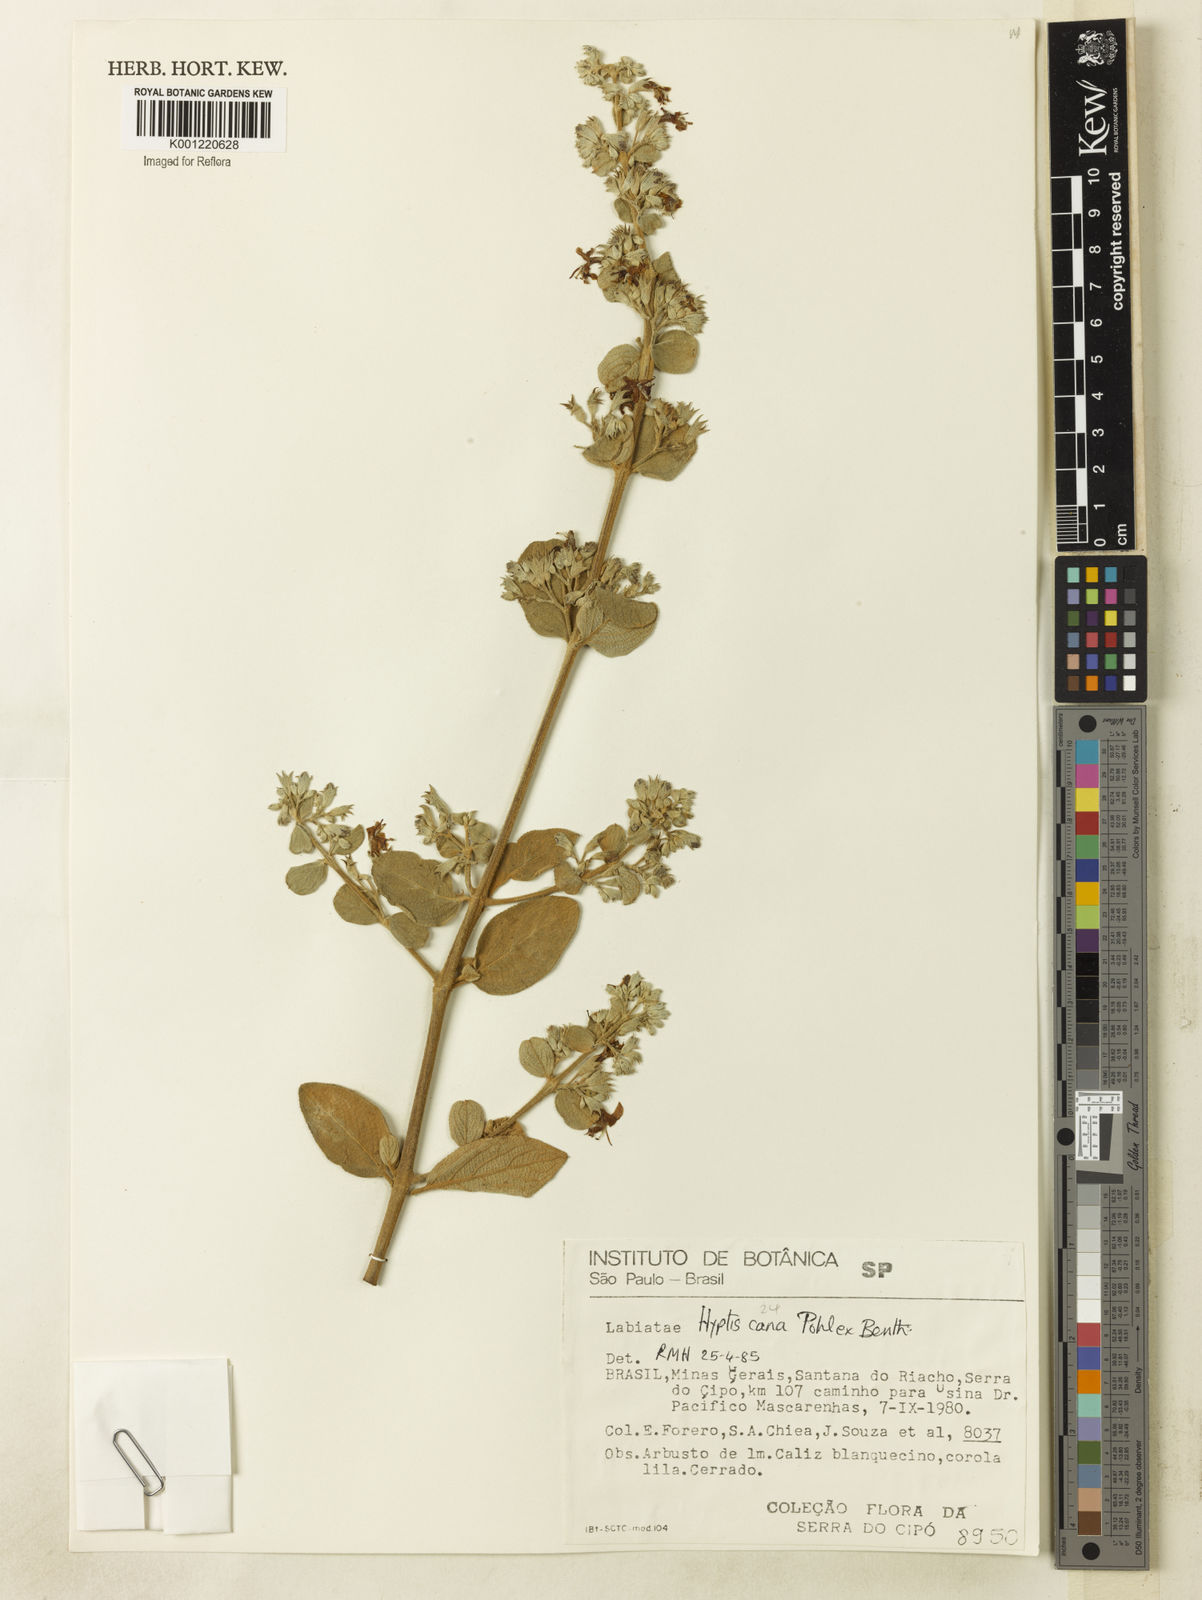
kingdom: Plantae
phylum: Tracheophyta
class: Magnoliopsida
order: Lamiales
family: Lamiaceae
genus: Hyptidendron
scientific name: Hyptidendron canum
